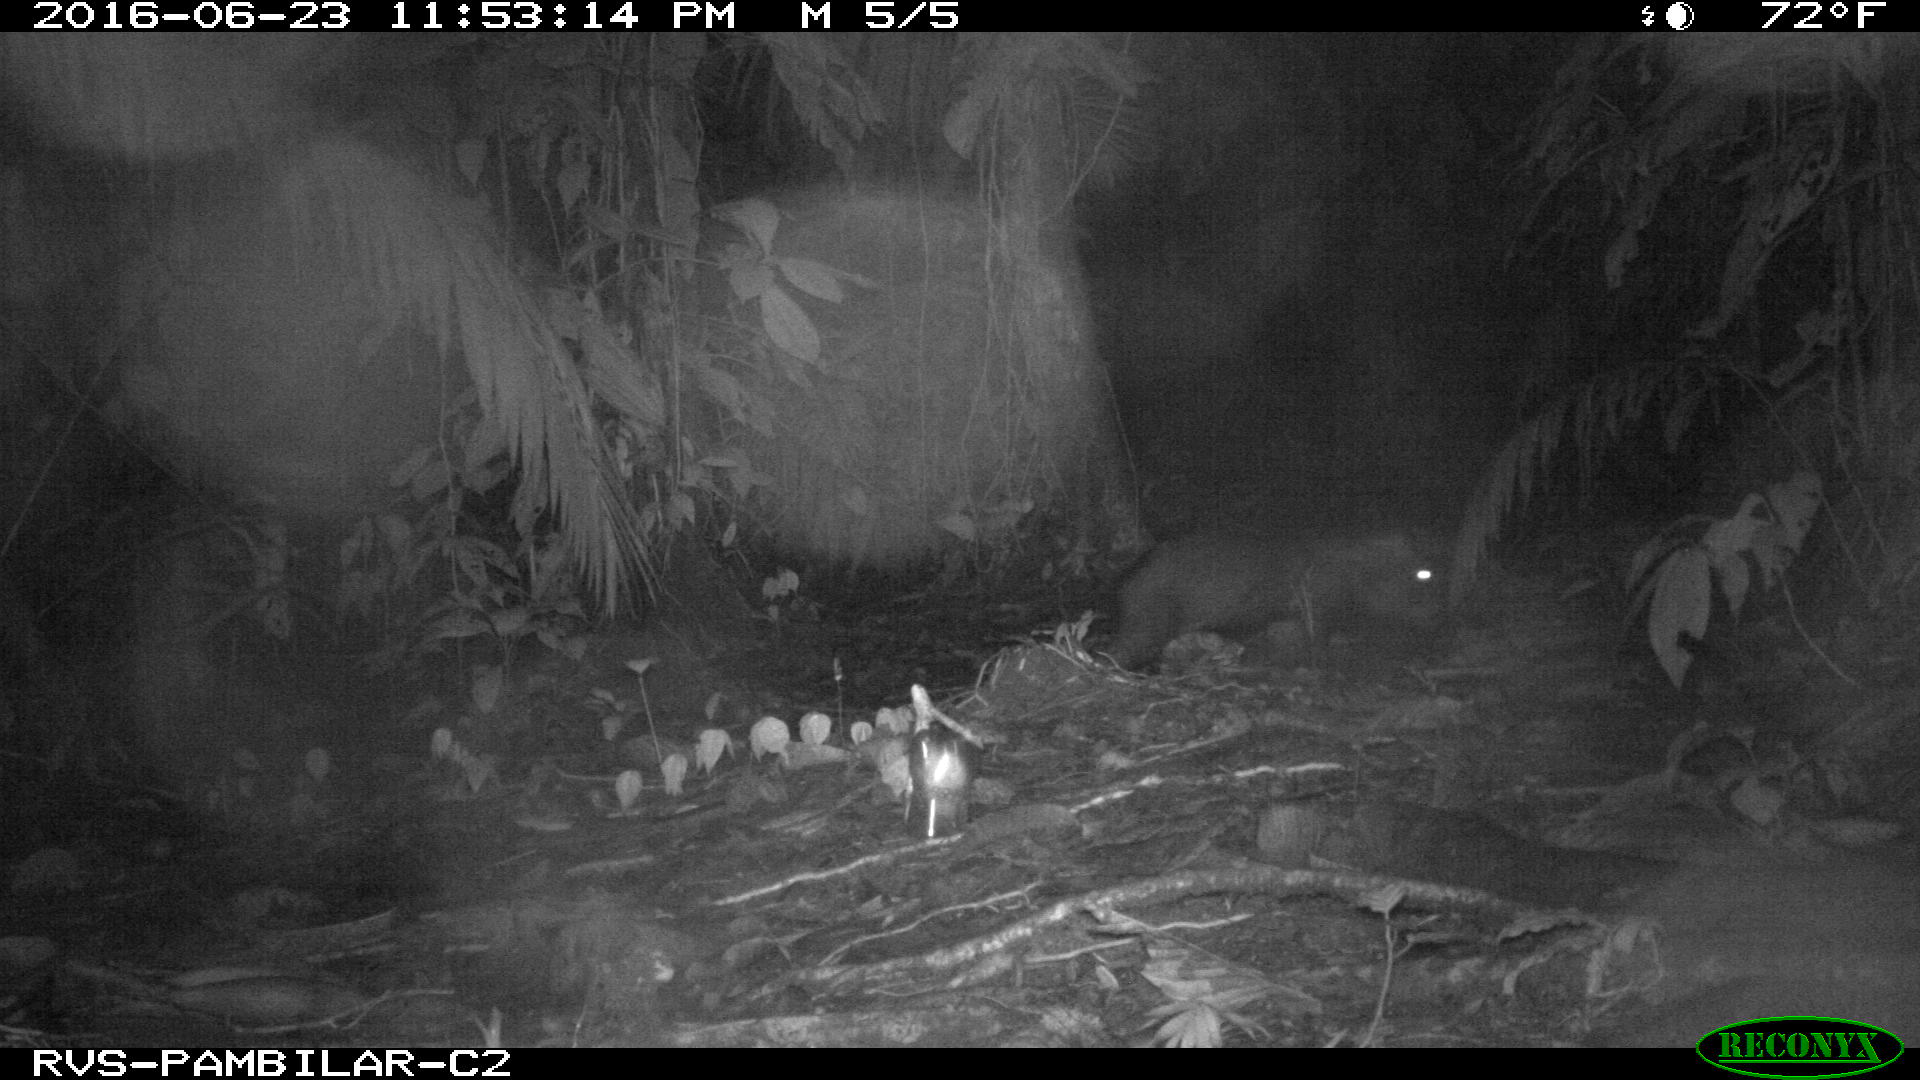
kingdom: Animalia
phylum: Chordata
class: Mammalia
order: Artiodactyla
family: Tayassuidae
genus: Tayassu
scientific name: Tayassu pecari
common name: White-lipped peccary
